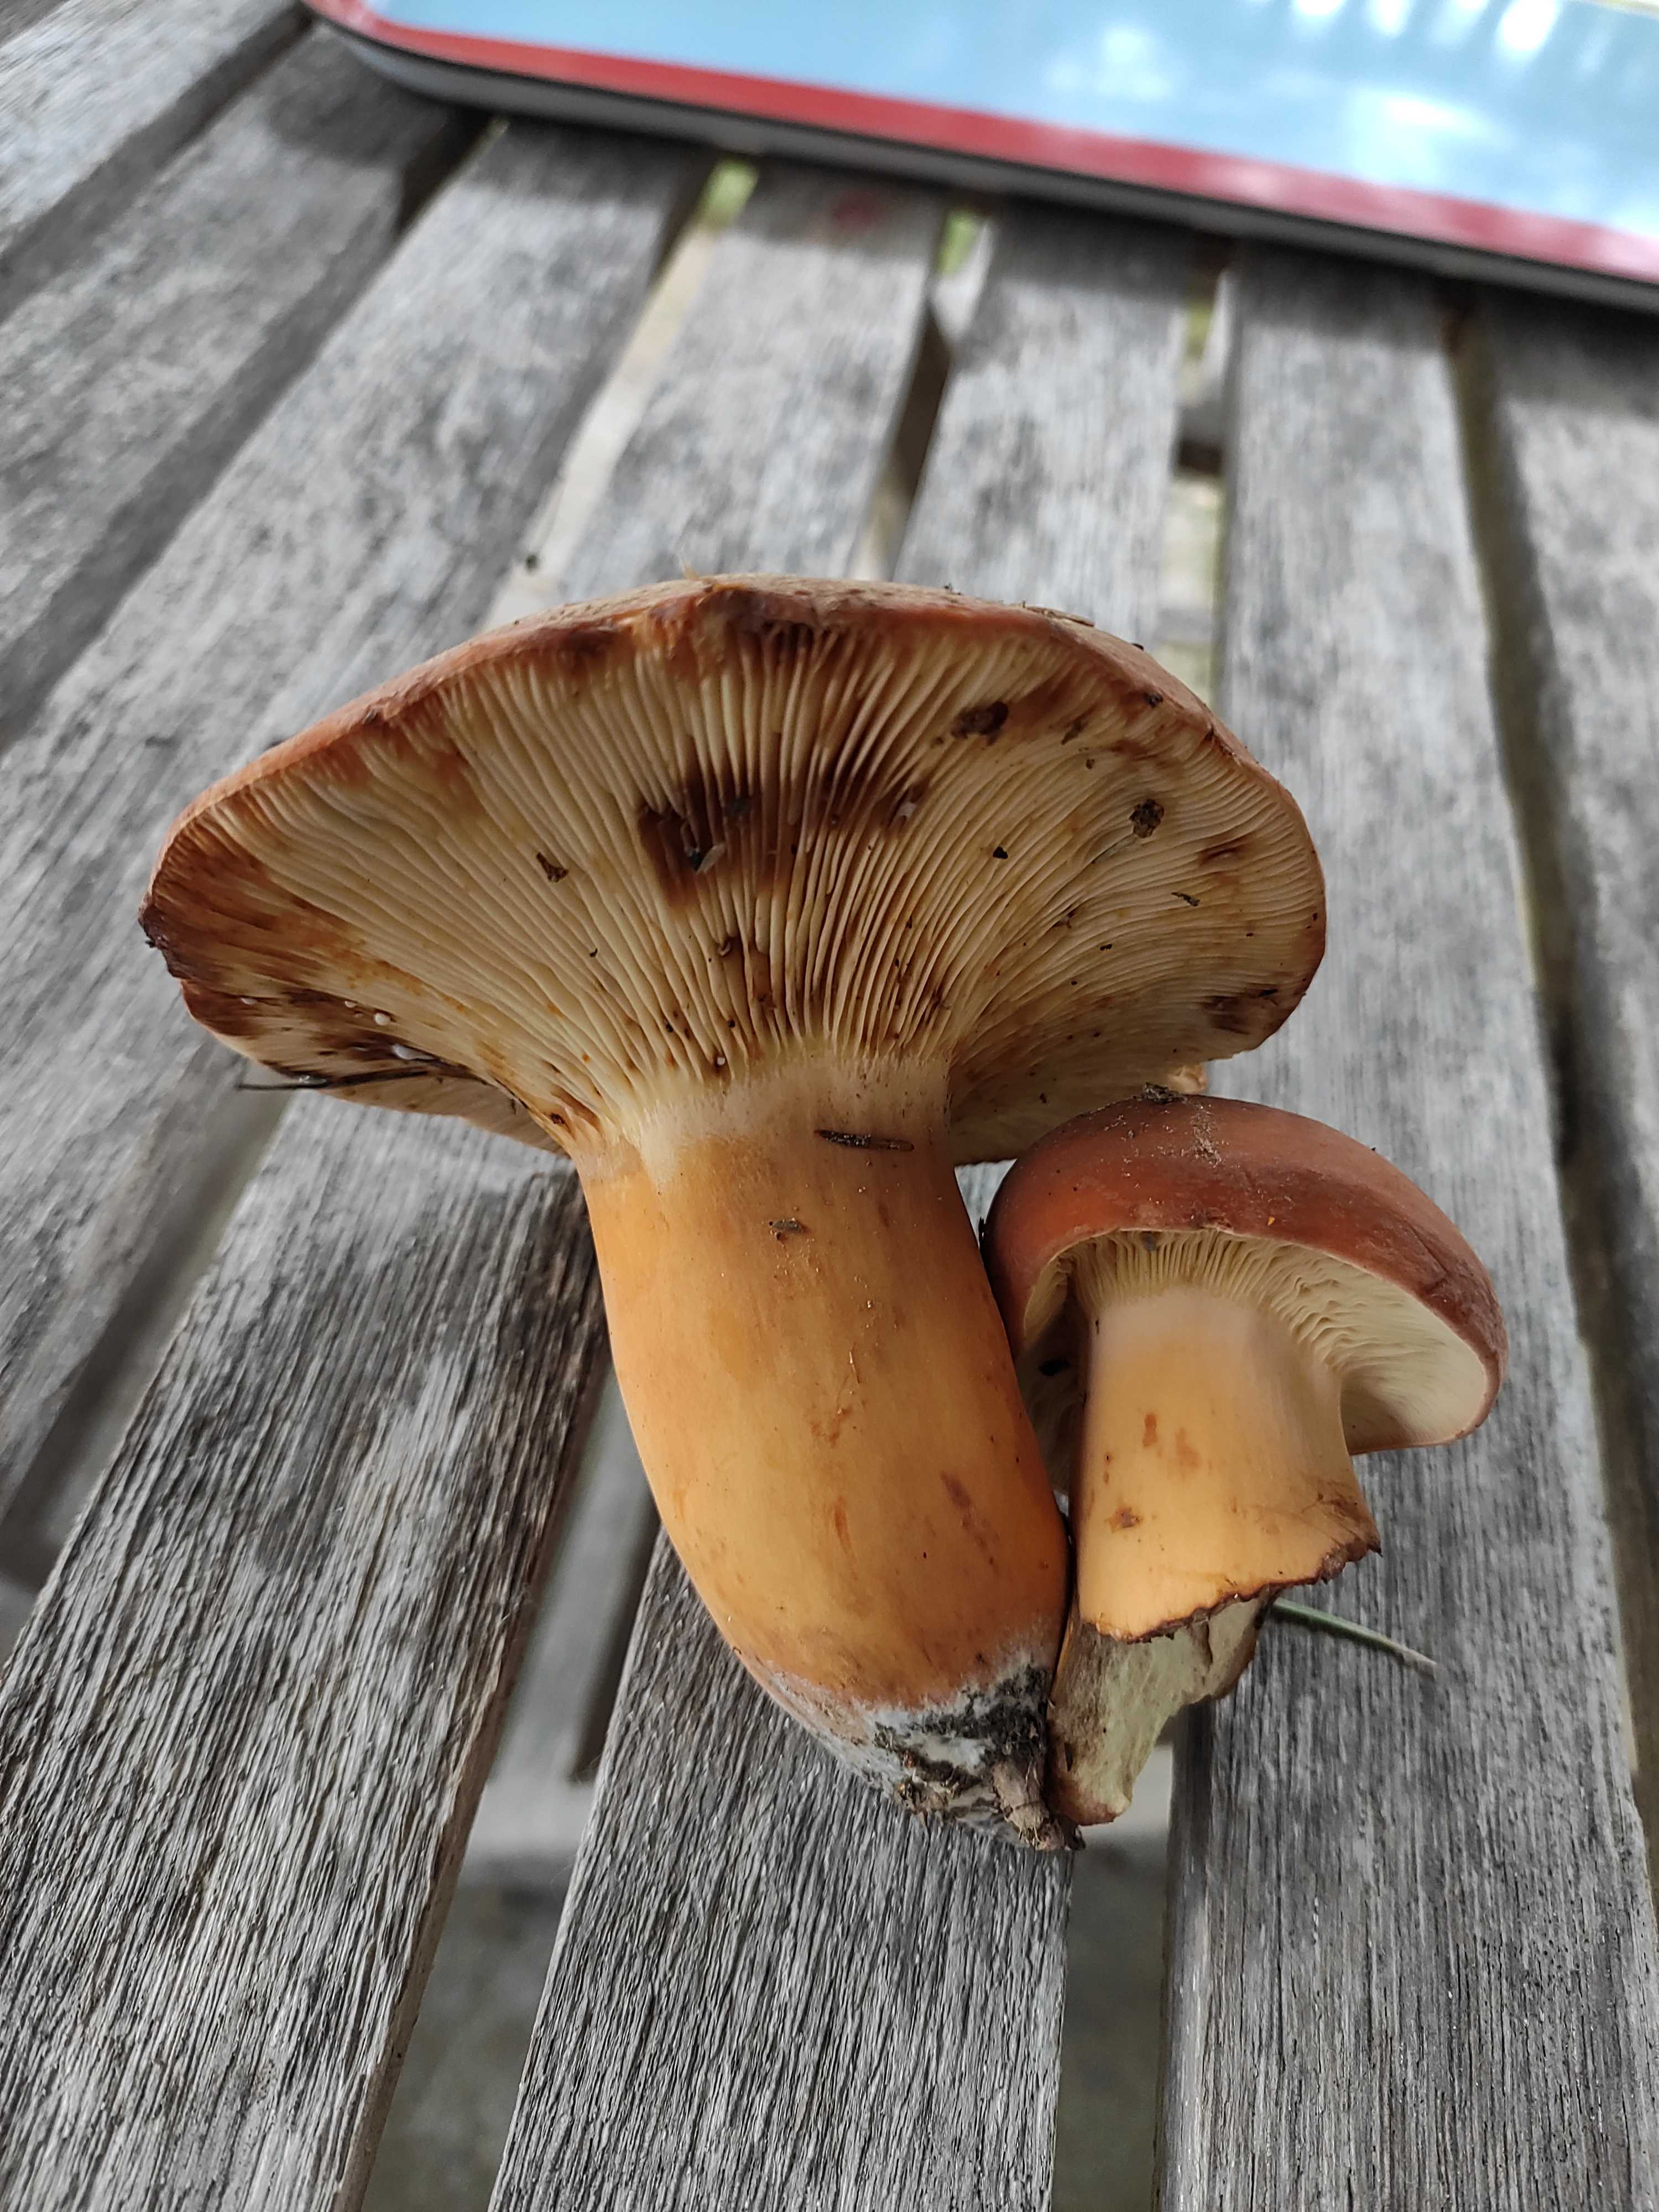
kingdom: Fungi
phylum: Basidiomycota
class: Agaricomycetes
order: Russulales
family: Russulaceae
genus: Lactifluus
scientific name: Lactifluus volemus
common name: spiselig mælkehat
